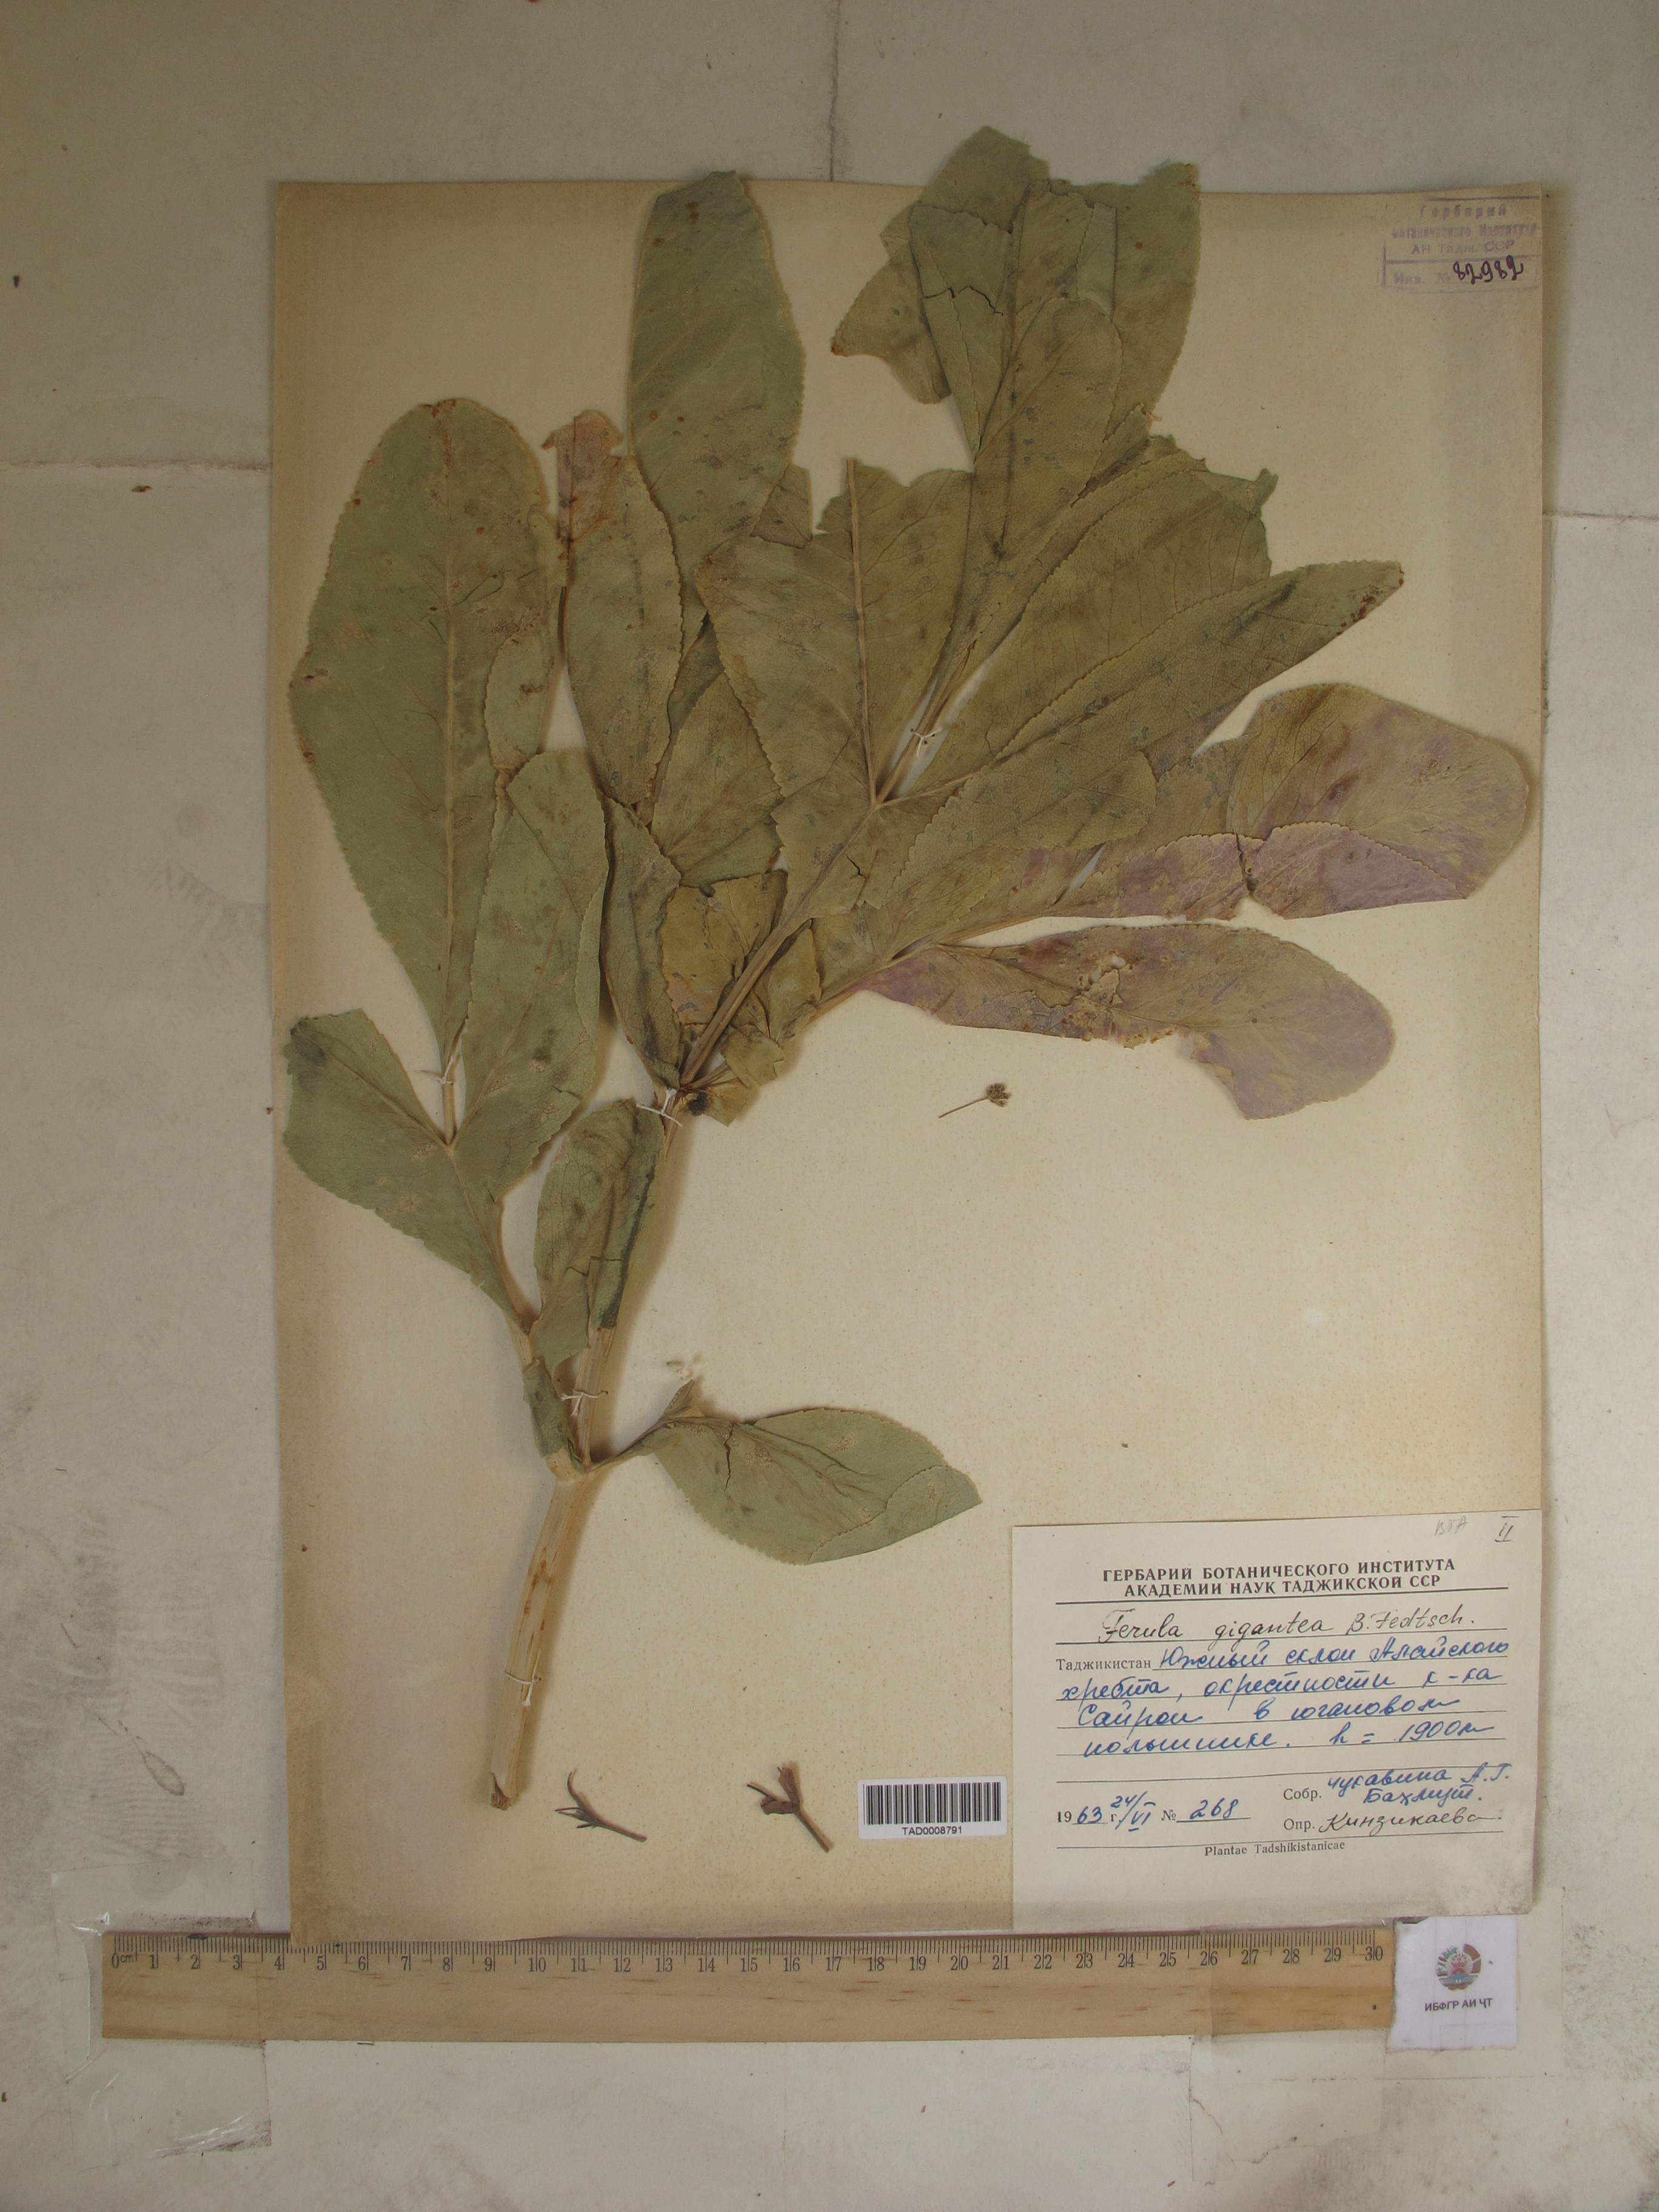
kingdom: Plantae
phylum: Tracheophyta
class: Magnoliopsida
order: Apiales
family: Apiaceae
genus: Ferula
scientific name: Ferula gigantea
